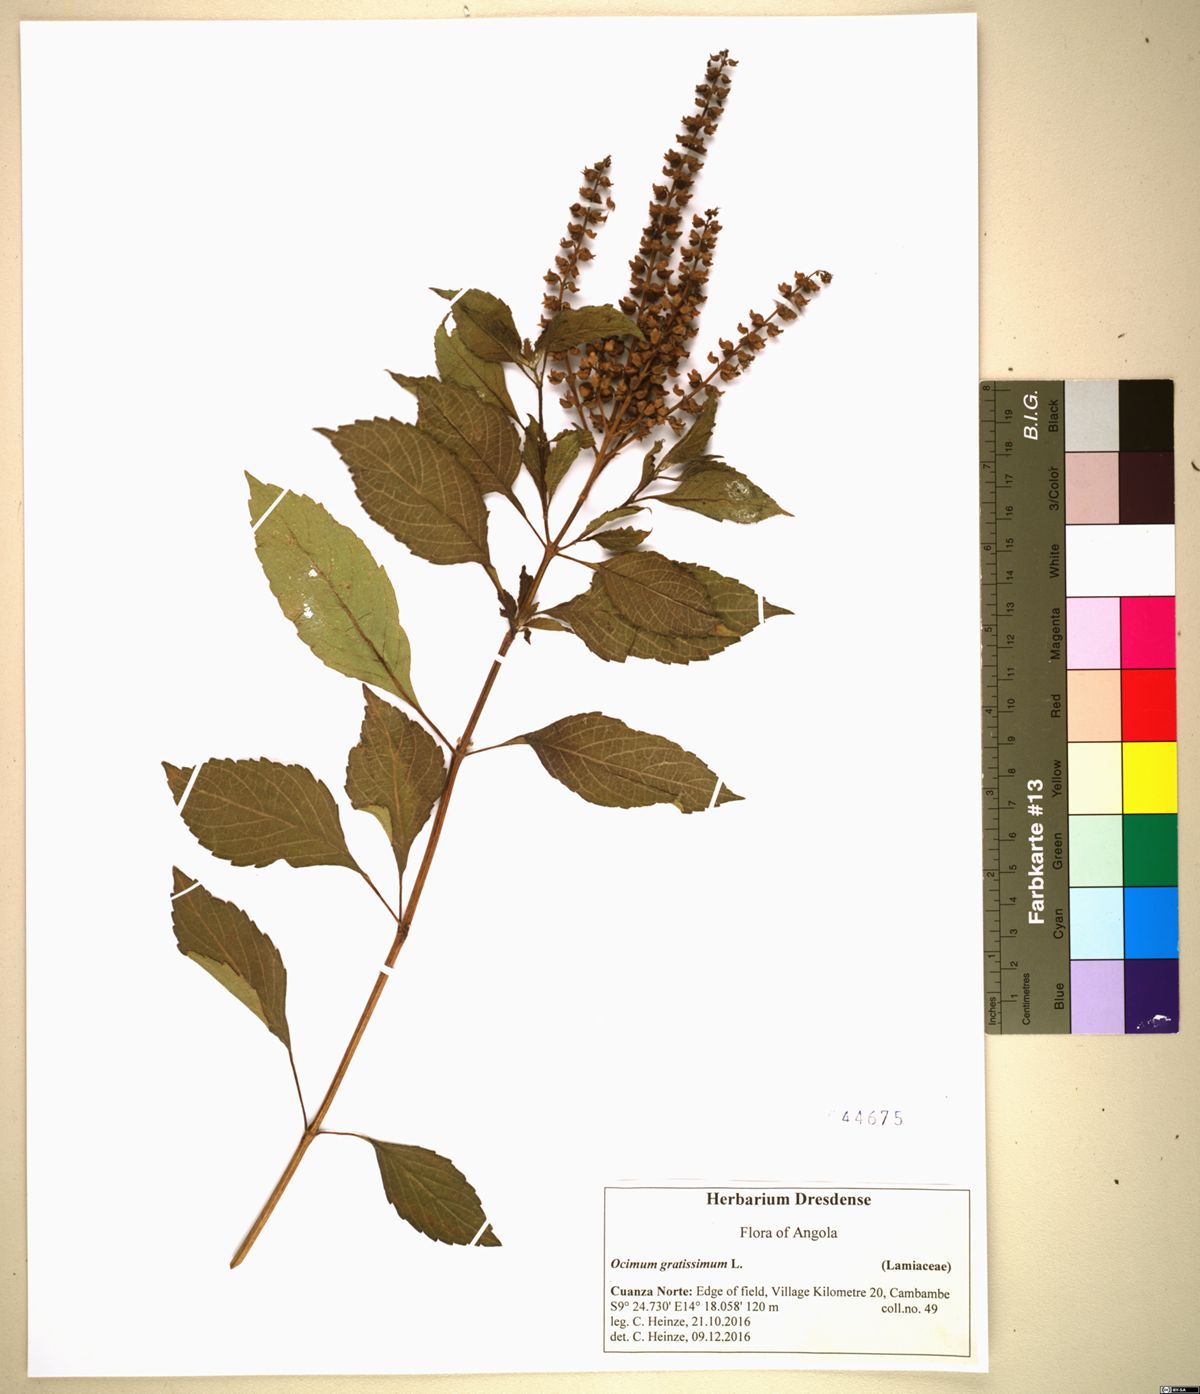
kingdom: Plantae
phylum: Tracheophyta
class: Magnoliopsida
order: Lamiales
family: Lamiaceae
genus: Ocimum
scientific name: Ocimum gratissimum
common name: African basil
